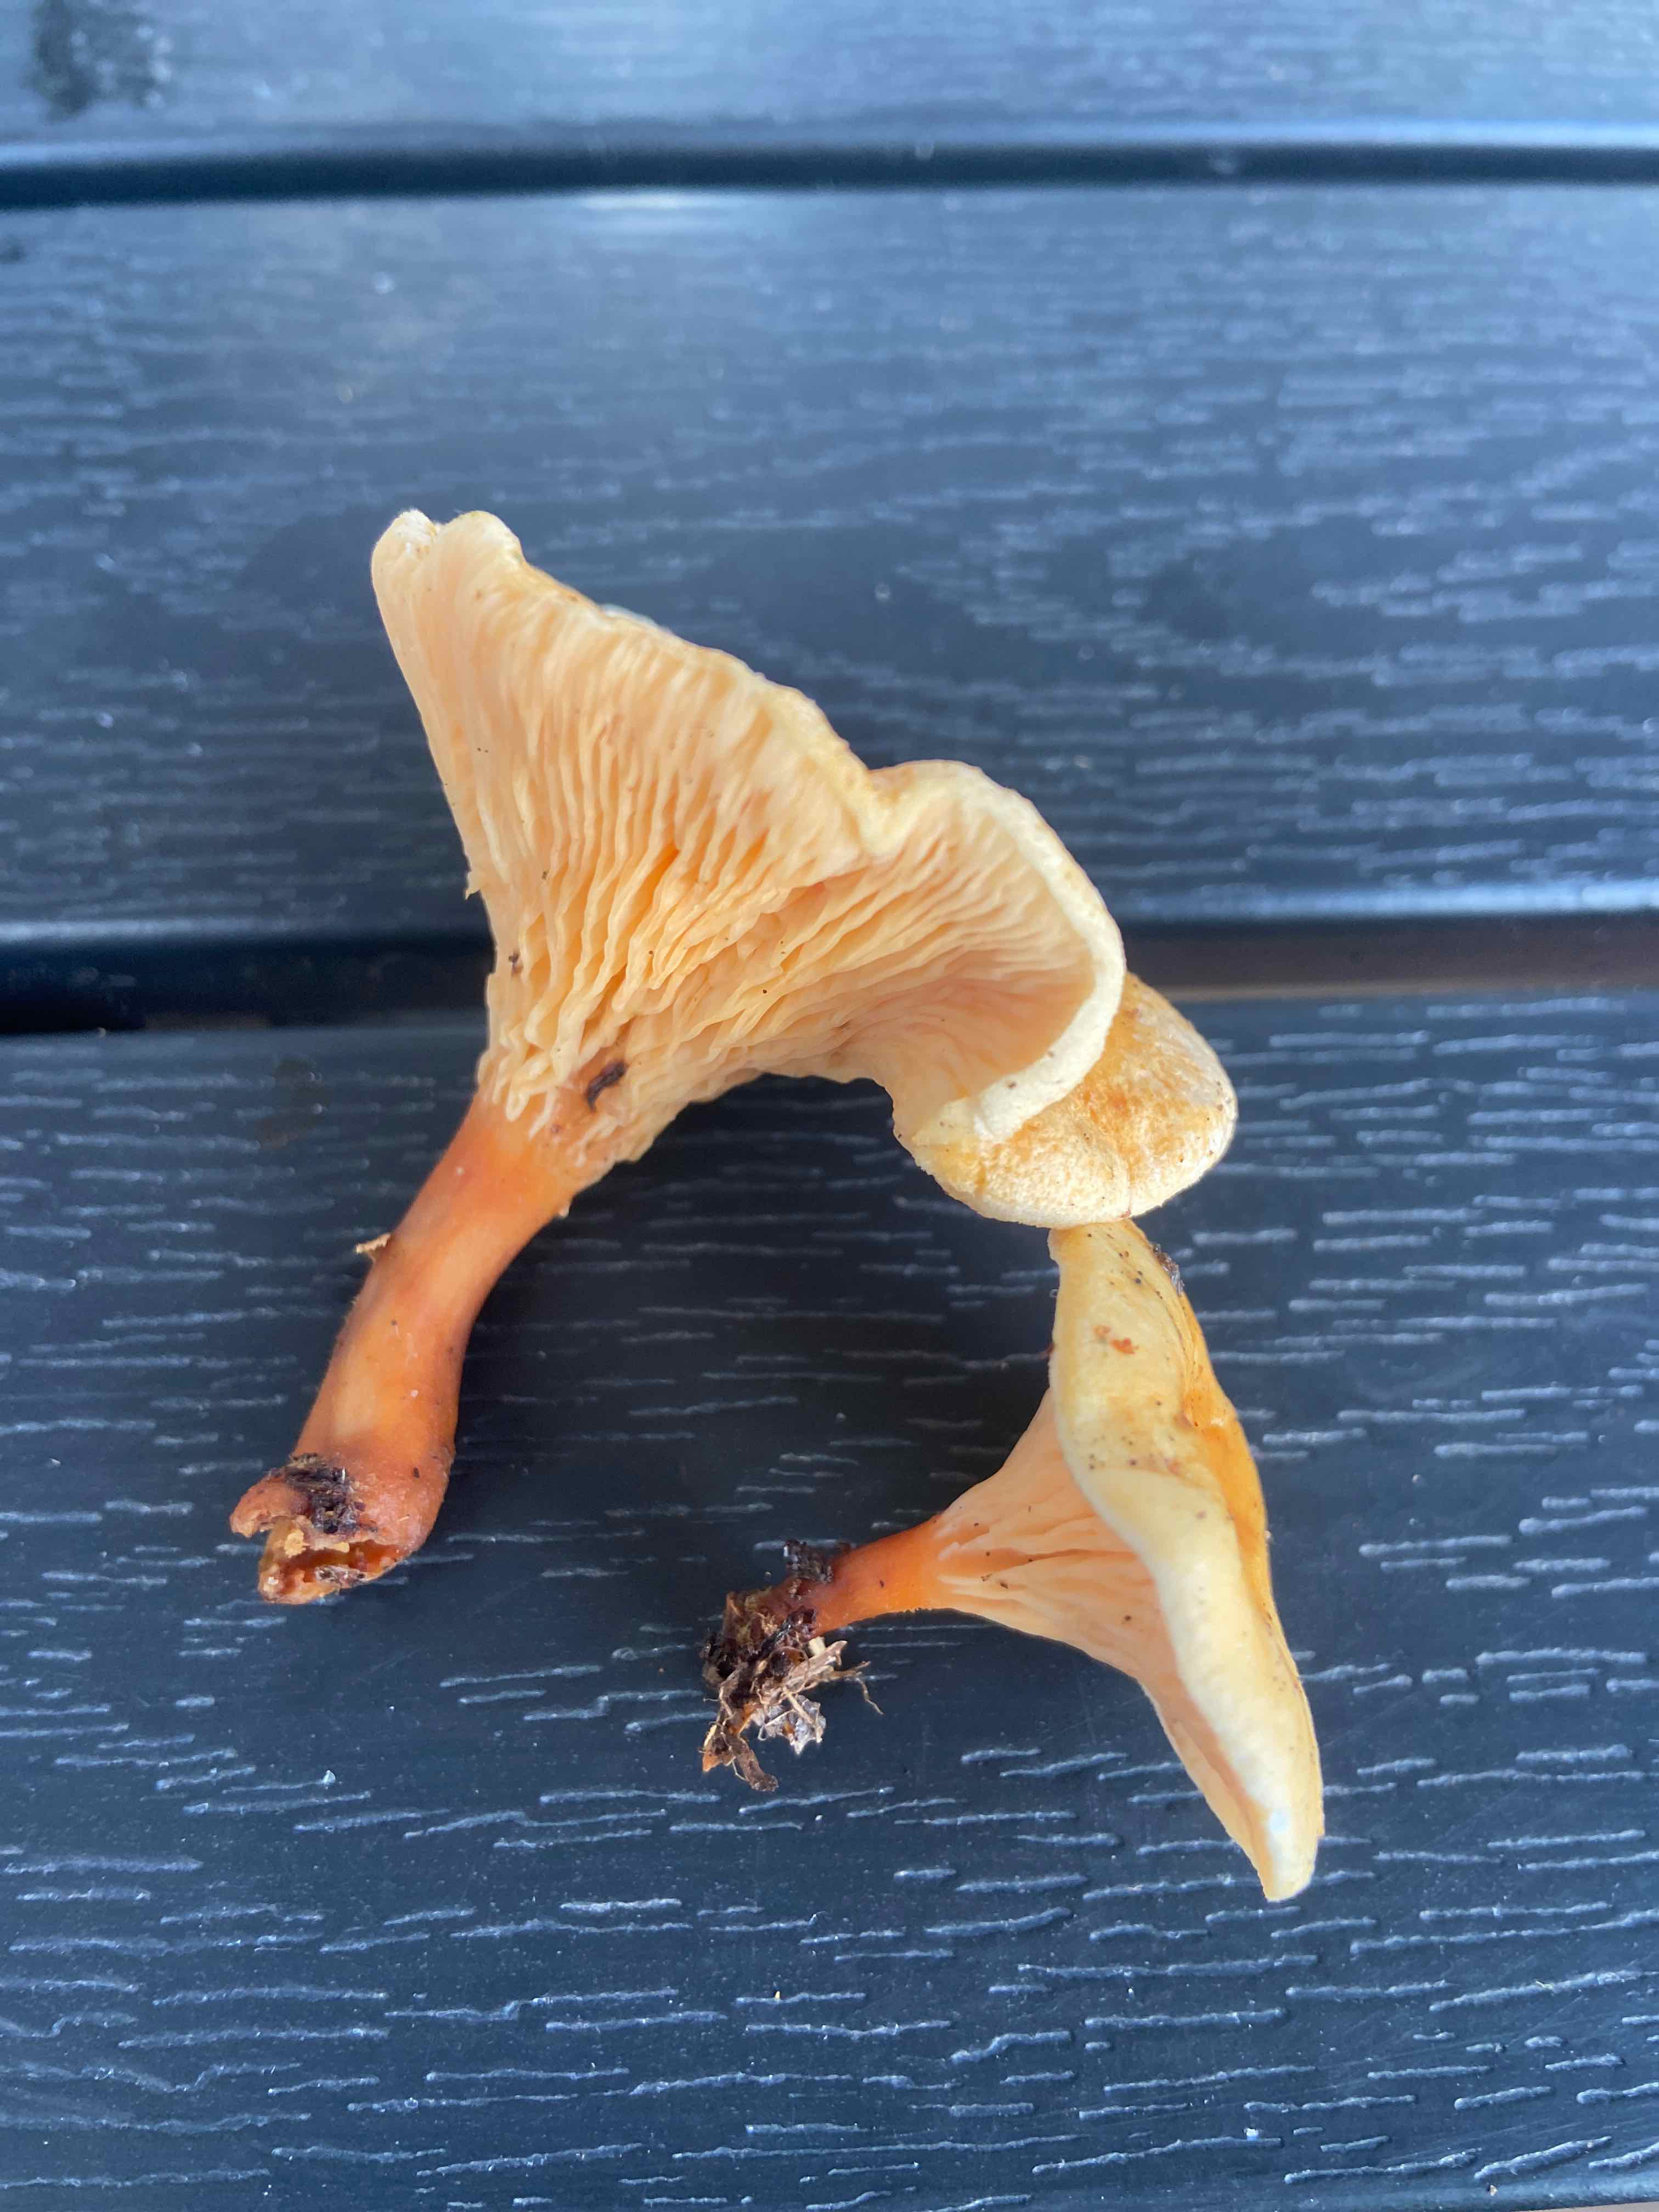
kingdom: Fungi
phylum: Basidiomycota
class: Agaricomycetes
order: Boletales
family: Hygrophoropsidaceae
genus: Hygrophoropsis
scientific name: Hygrophoropsis aurantiaca
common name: almindelig orangekantarel
